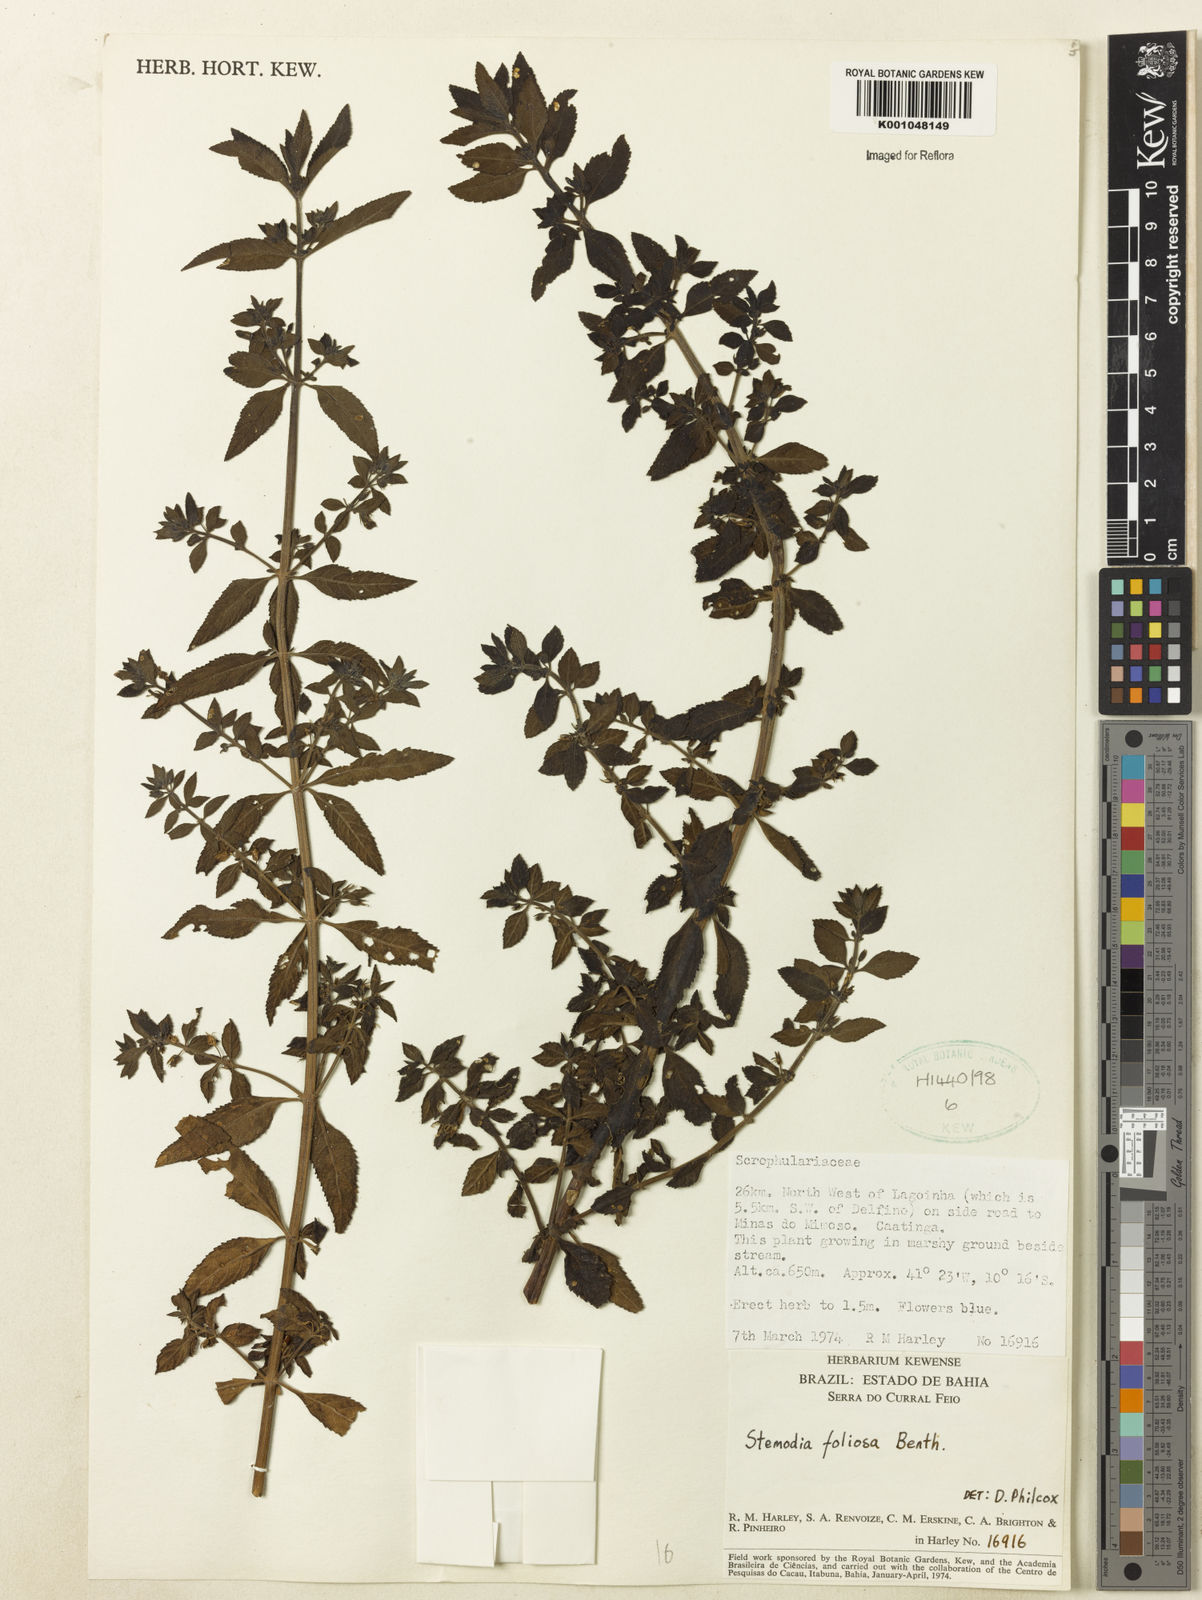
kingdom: Plantae
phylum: Tracheophyta
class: Magnoliopsida
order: Lamiales
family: Plantaginaceae
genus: Stemodia
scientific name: Stemodia foliosa
